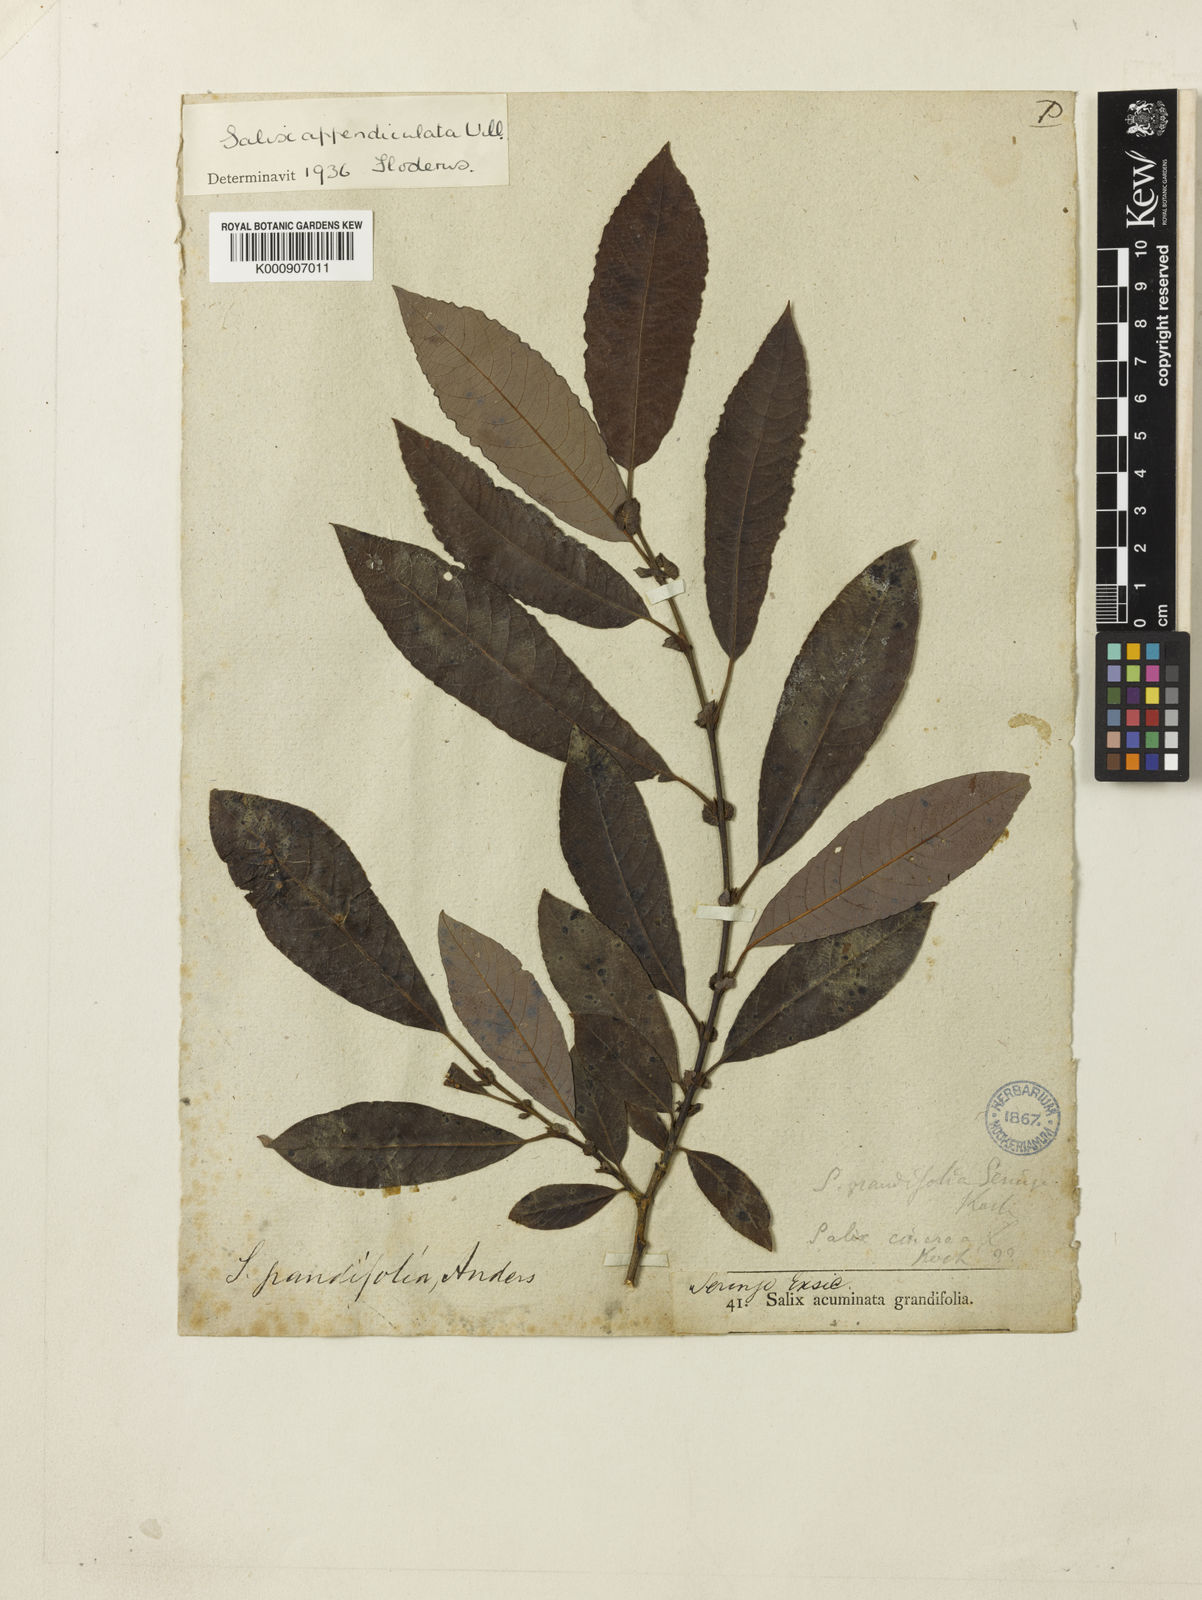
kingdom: Plantae
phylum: Tracheophyta
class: Magnoliopsida
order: Malpighiales
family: Salicaceae
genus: Salix
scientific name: Salix aurita
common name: Eared willow
